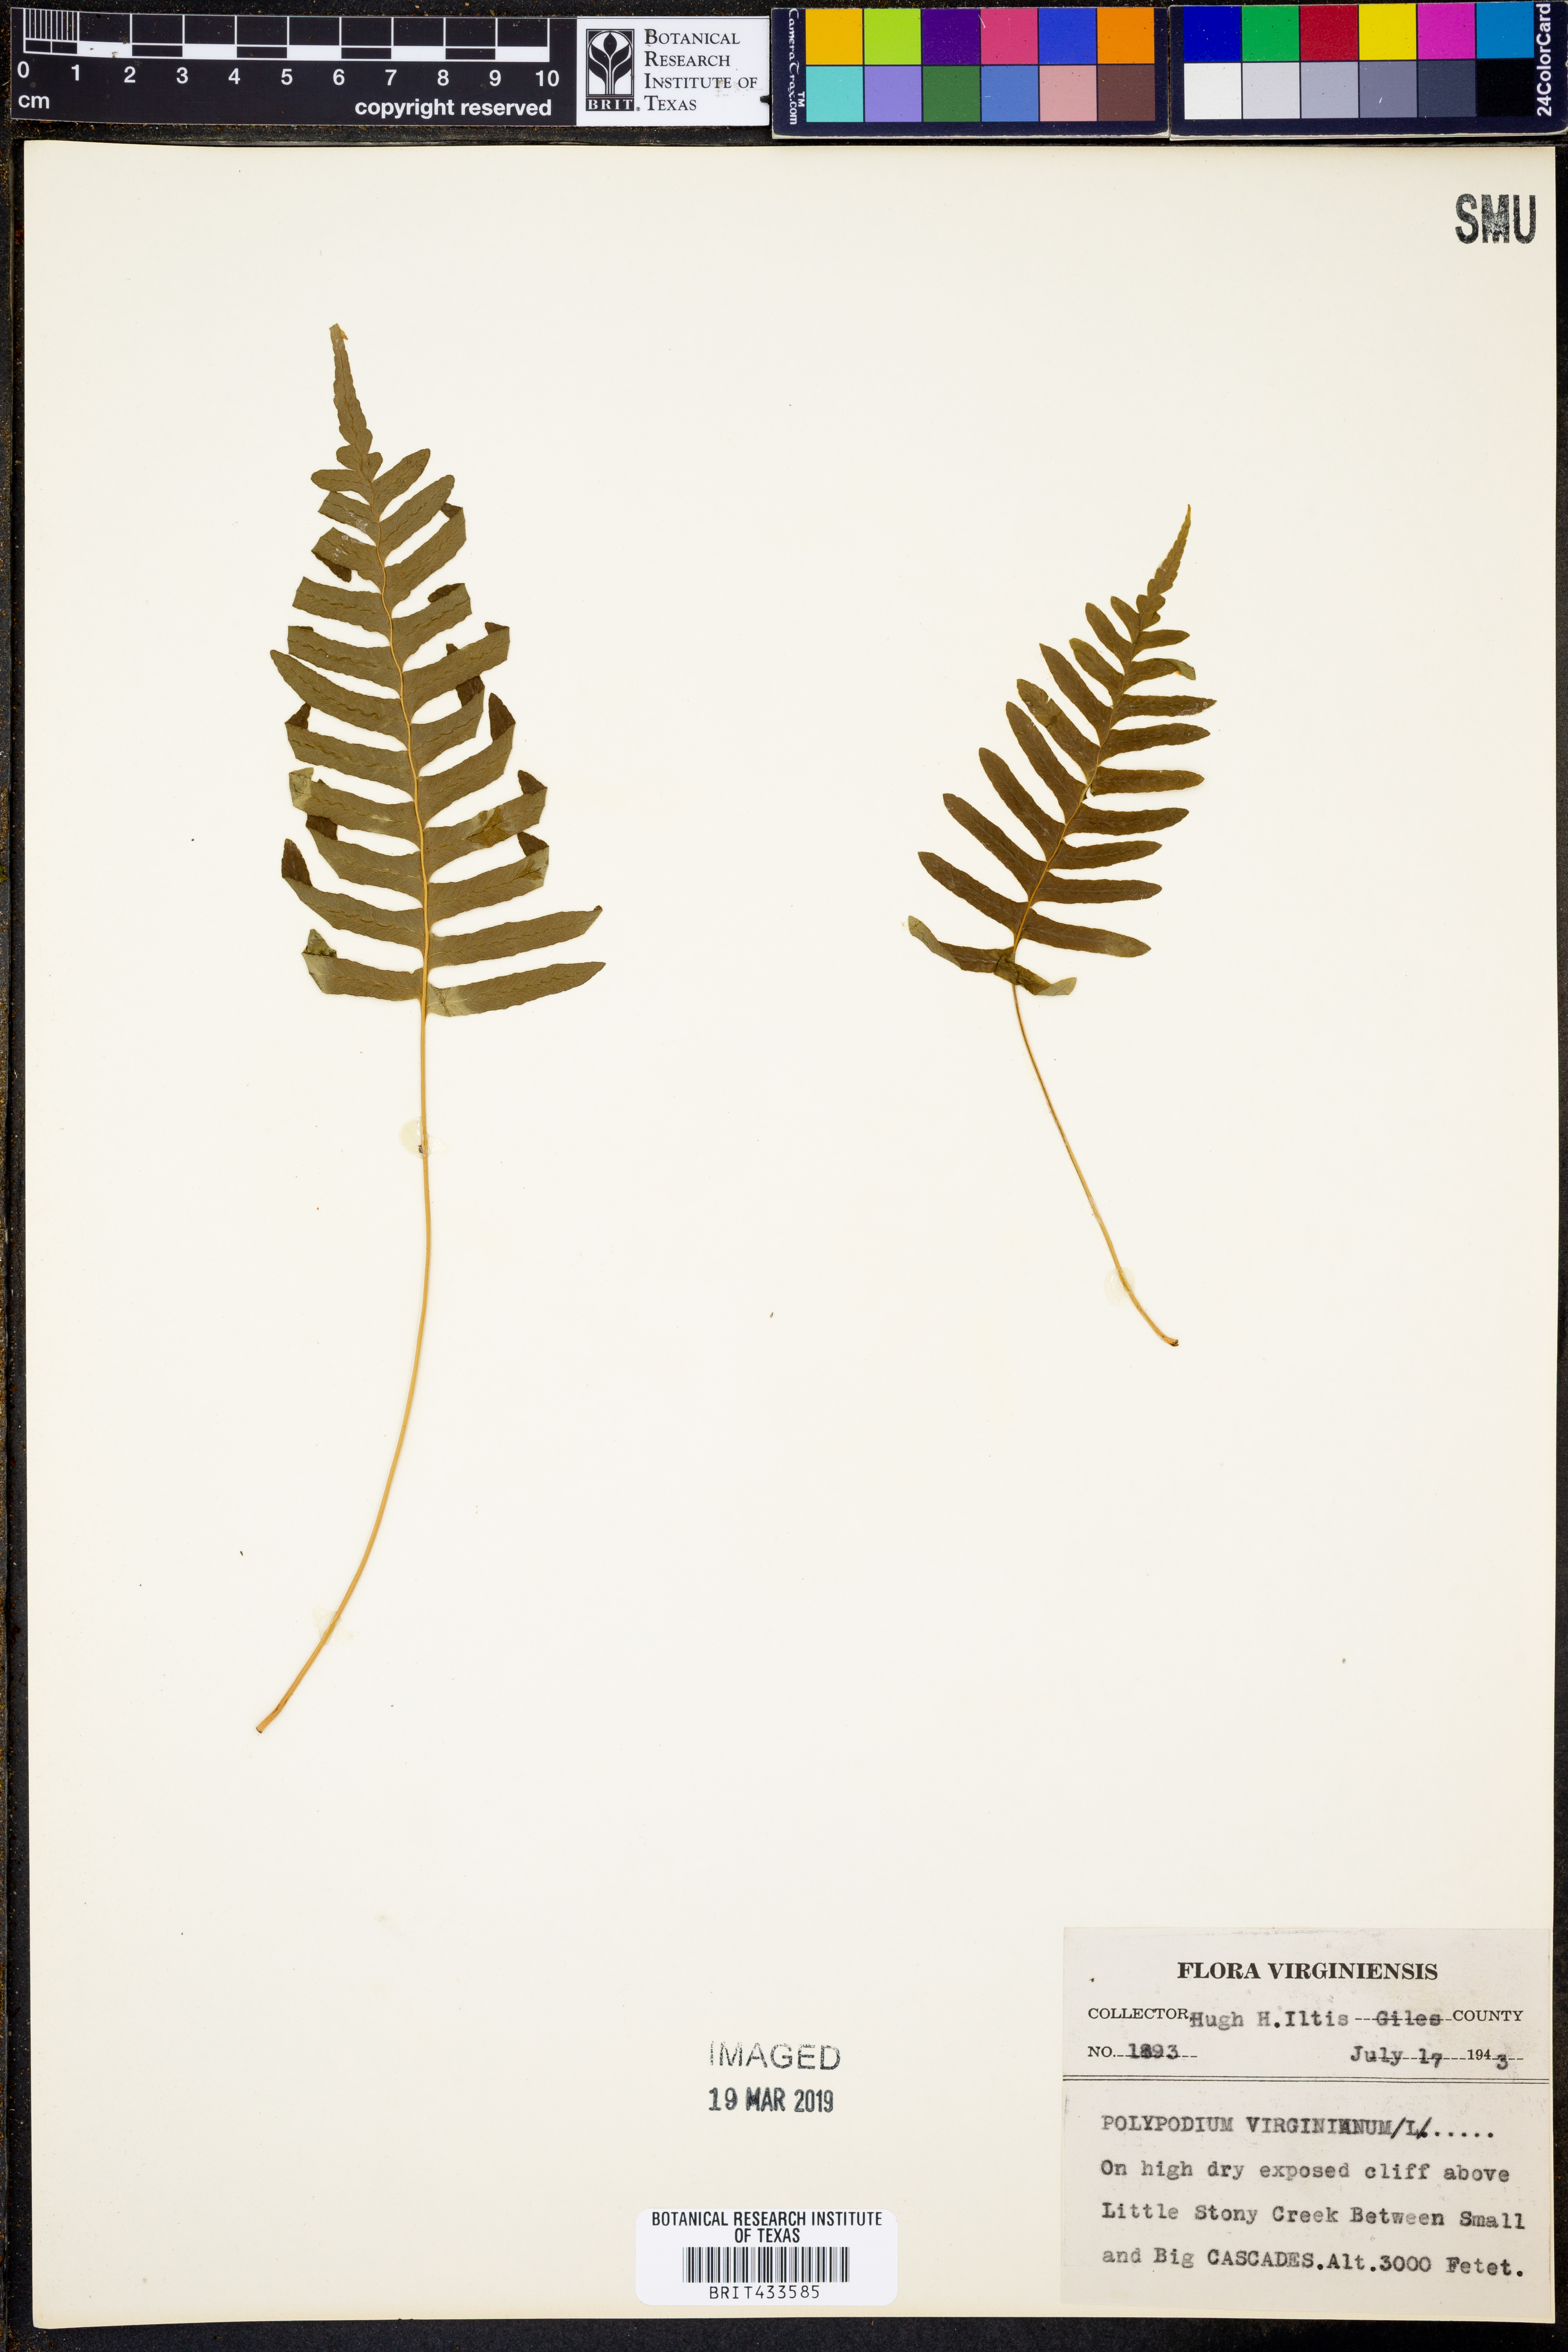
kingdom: Plantae
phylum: Tracheophyta
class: Polypodiopsida
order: Polypodiales
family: Polypodiaceae
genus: Polypodium
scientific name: Polypodium virginianum
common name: American wall fern
